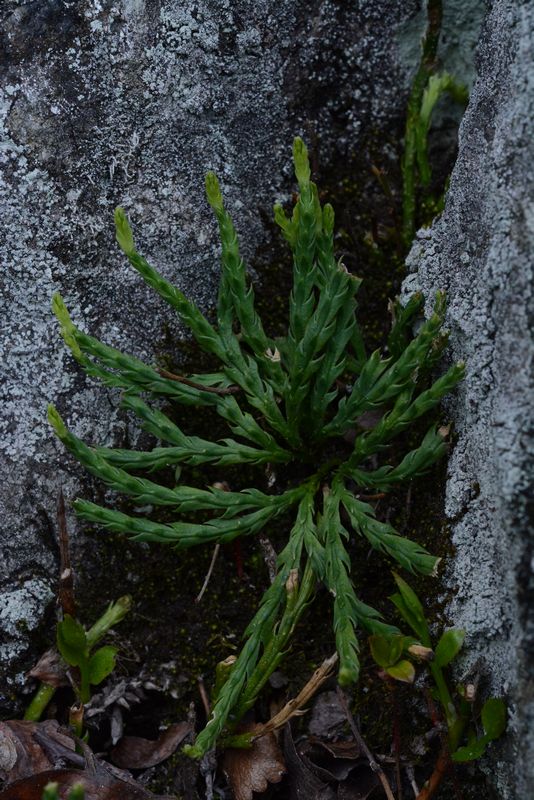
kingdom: Plantae
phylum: Tracheophyta
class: Lycopodiopsida
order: Lycopodiales
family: Lycopodiaceae
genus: Diphasiastrum
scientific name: Diphasiastrum alpinum
